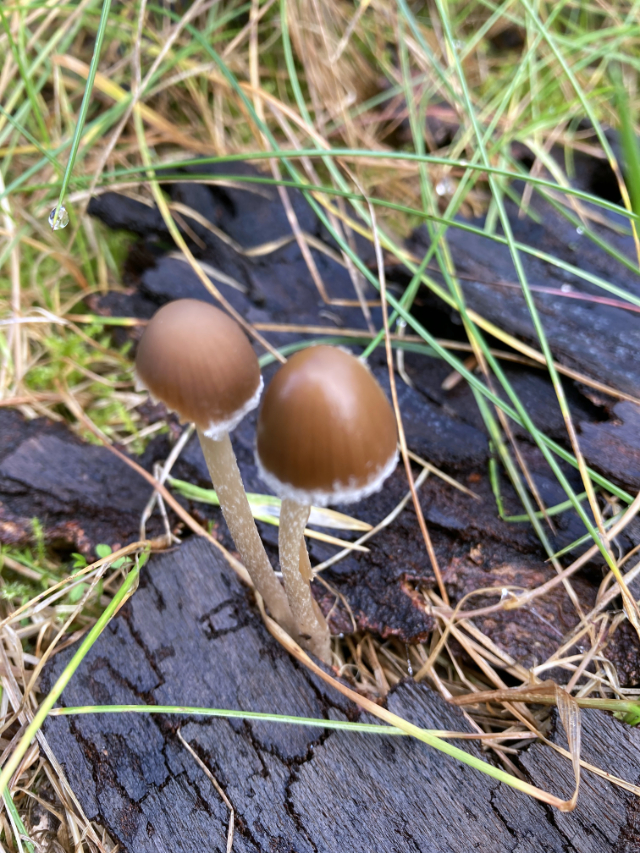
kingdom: Fungi
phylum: Basidiomycota
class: Agaricomycetes
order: Agaricales
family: Psathyrellaceae
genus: Psathyrella
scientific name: Psathyrella
